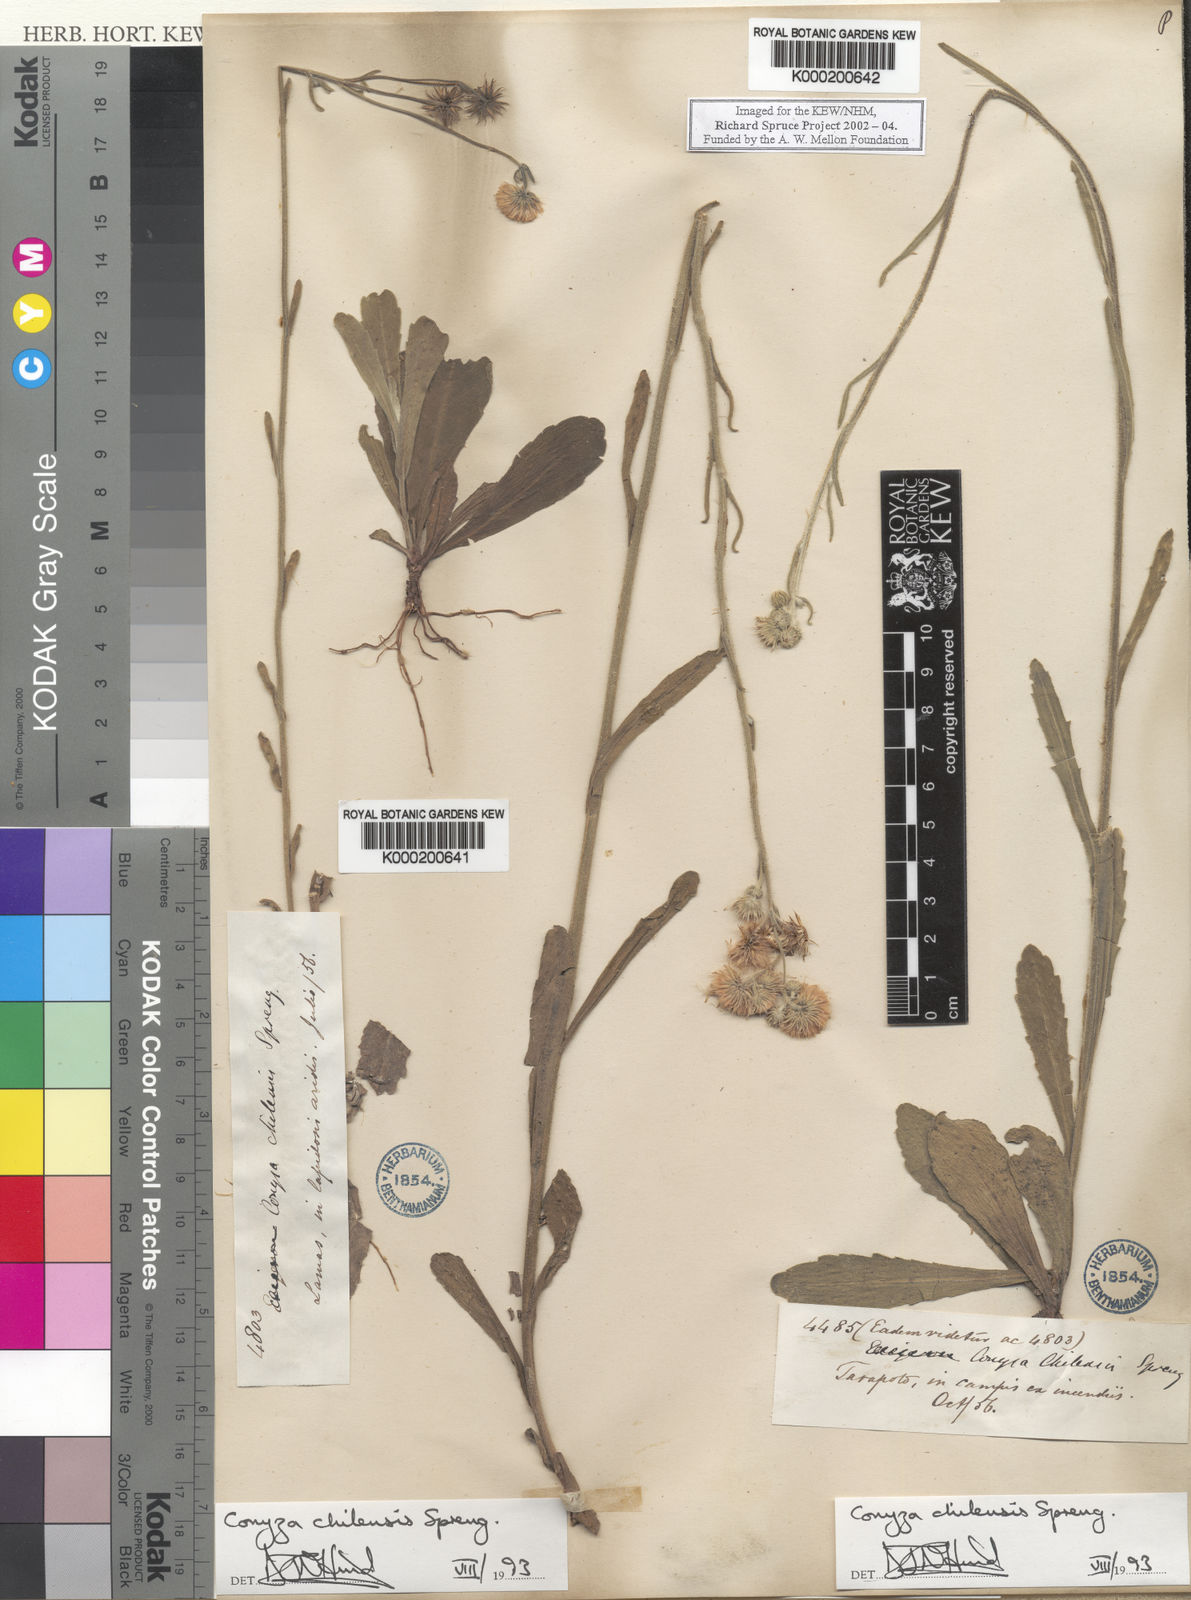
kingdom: Plantae
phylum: Tracheophyta
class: Magnoliopsida
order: Asterales
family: Asteraceae
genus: Erigeron
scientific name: Erigeron primulifolius
